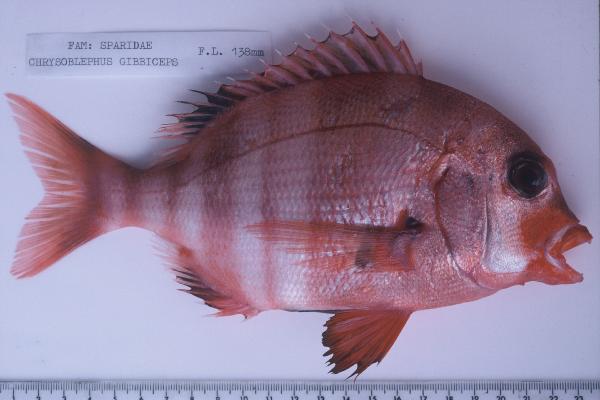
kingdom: Animalia
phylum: Chordata
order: Perciformes
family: Sparidae
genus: Chrysoblephus
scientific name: Chrysoblephus gibbiceps
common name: Red stumpnose
